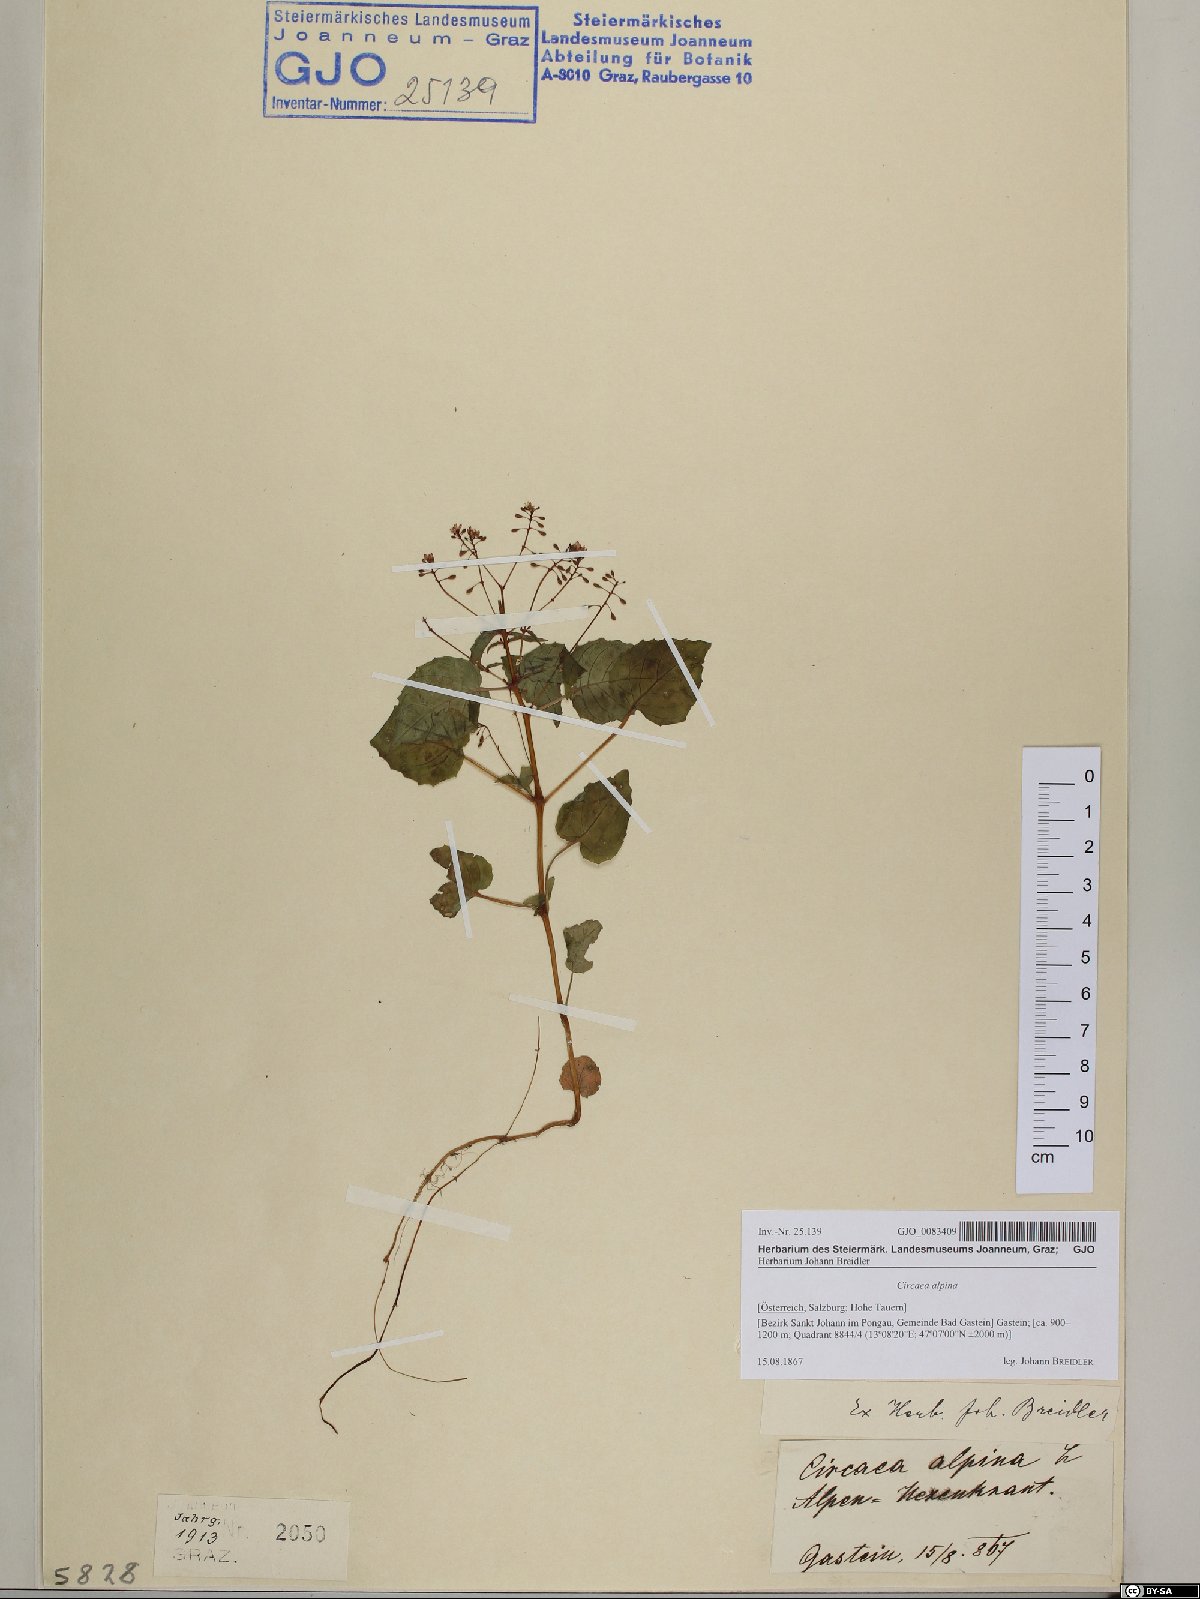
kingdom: Plantae
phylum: Tracheophyta
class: Magnoliopsida
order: Myrtales
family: Onagraceae
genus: Circaea
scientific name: Circaea alpina
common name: Alpine enchanter's-nightshade
